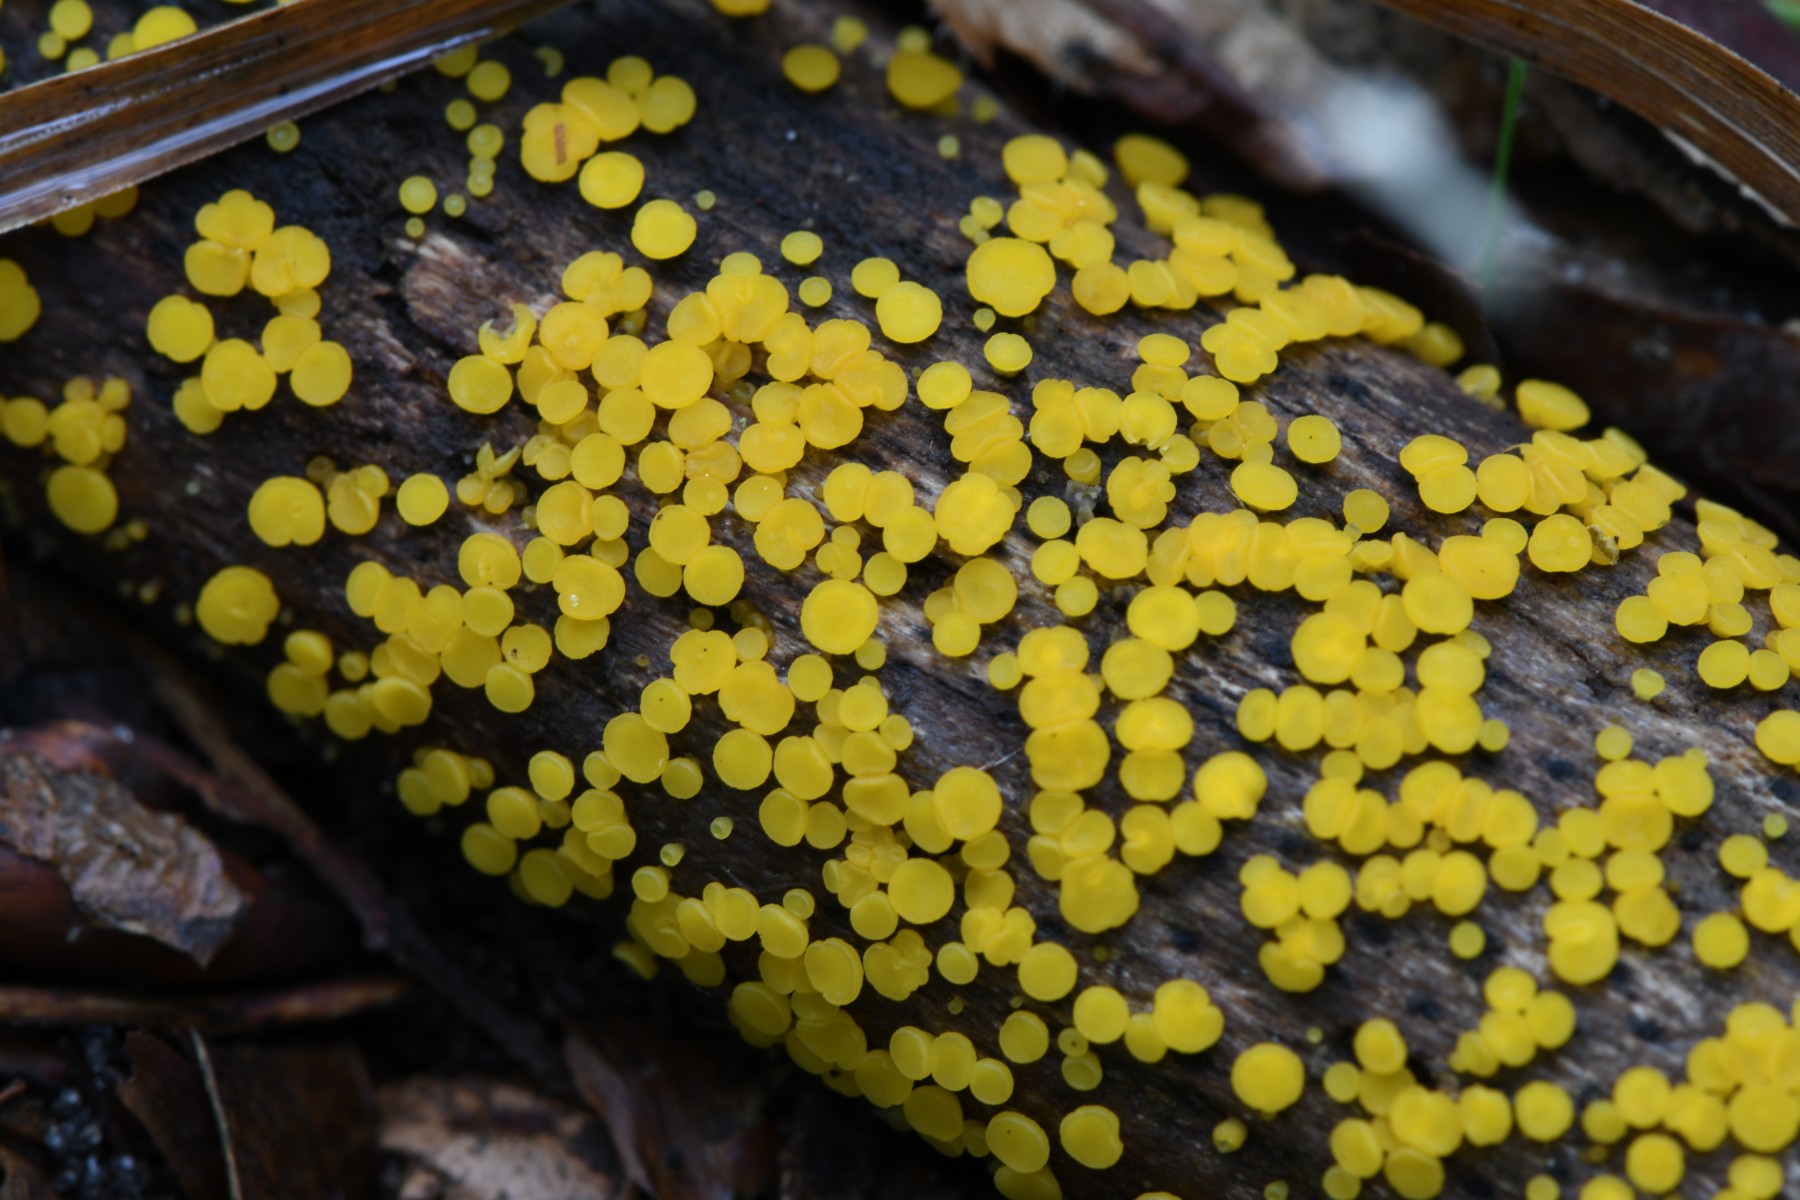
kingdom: Fungi
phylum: Ascomycota
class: Leotiomycetes
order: Helotiales
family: Pezizellaceae
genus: Calycina
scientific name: Calycina citrina
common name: almindelig gulskive
